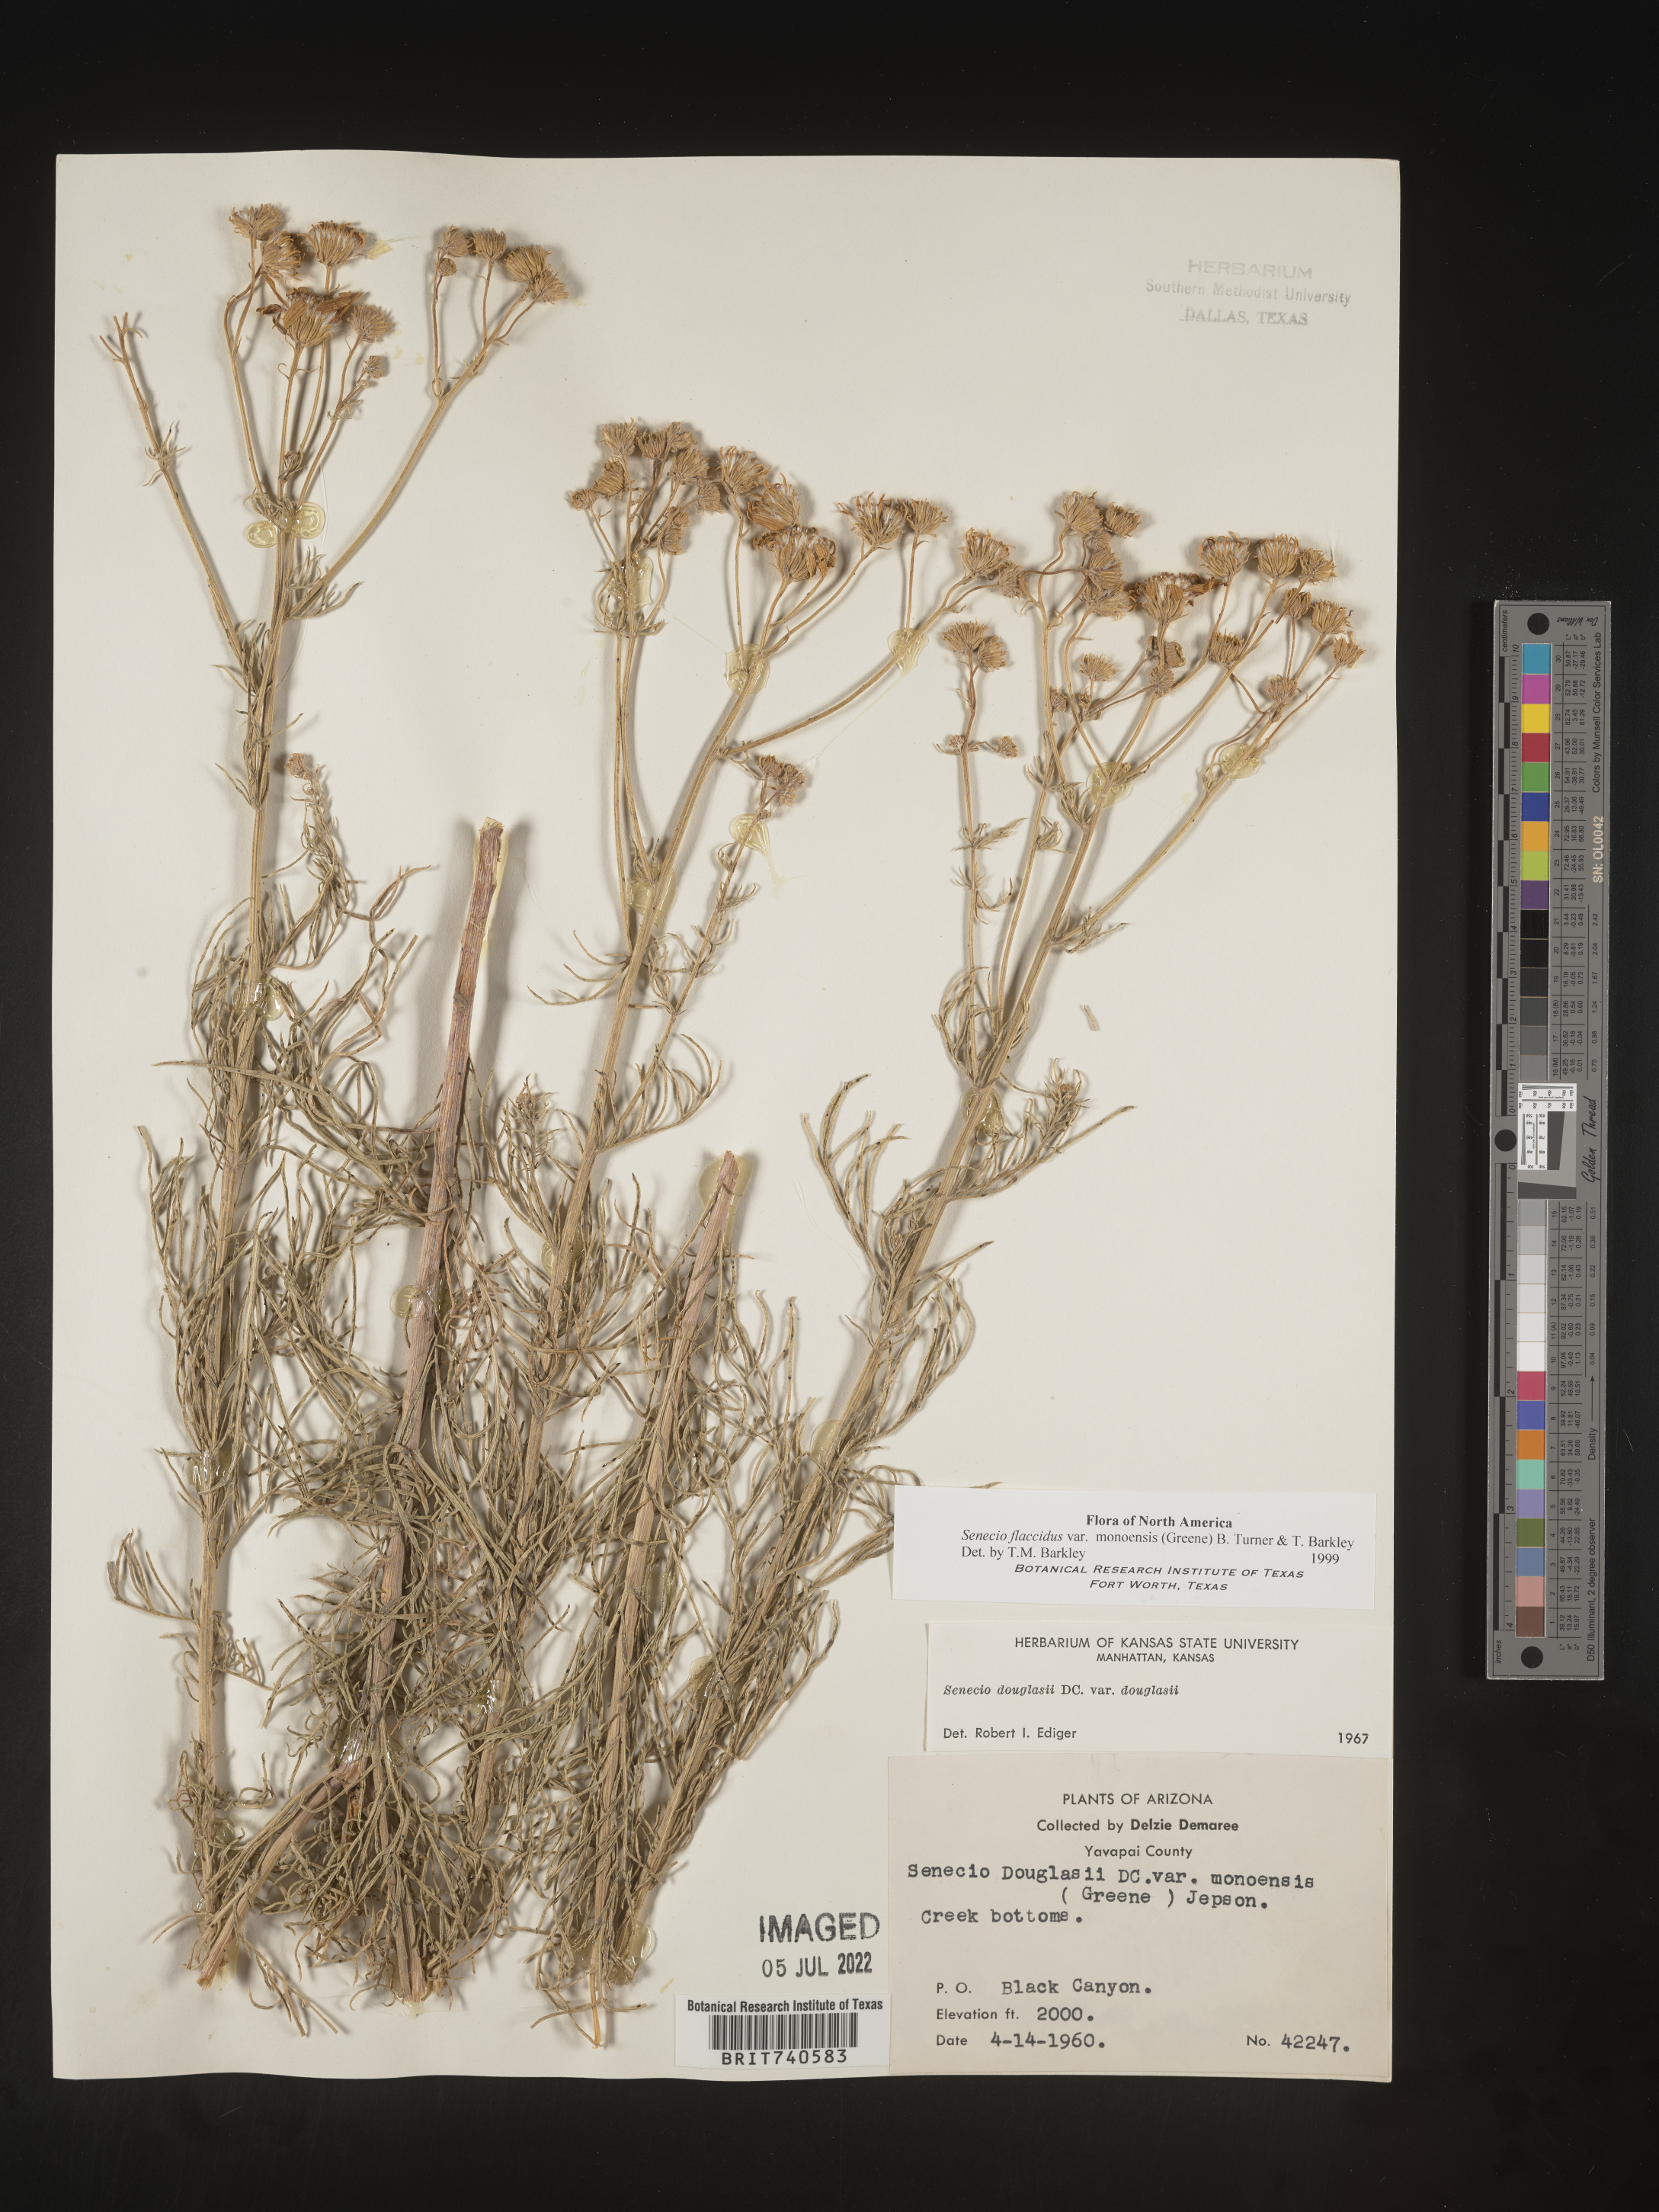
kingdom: Plantae
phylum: Tracheophyta
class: Magnoliopsida
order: Asterales
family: Asteraceae
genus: Senecio
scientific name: Senecio flaccidus
